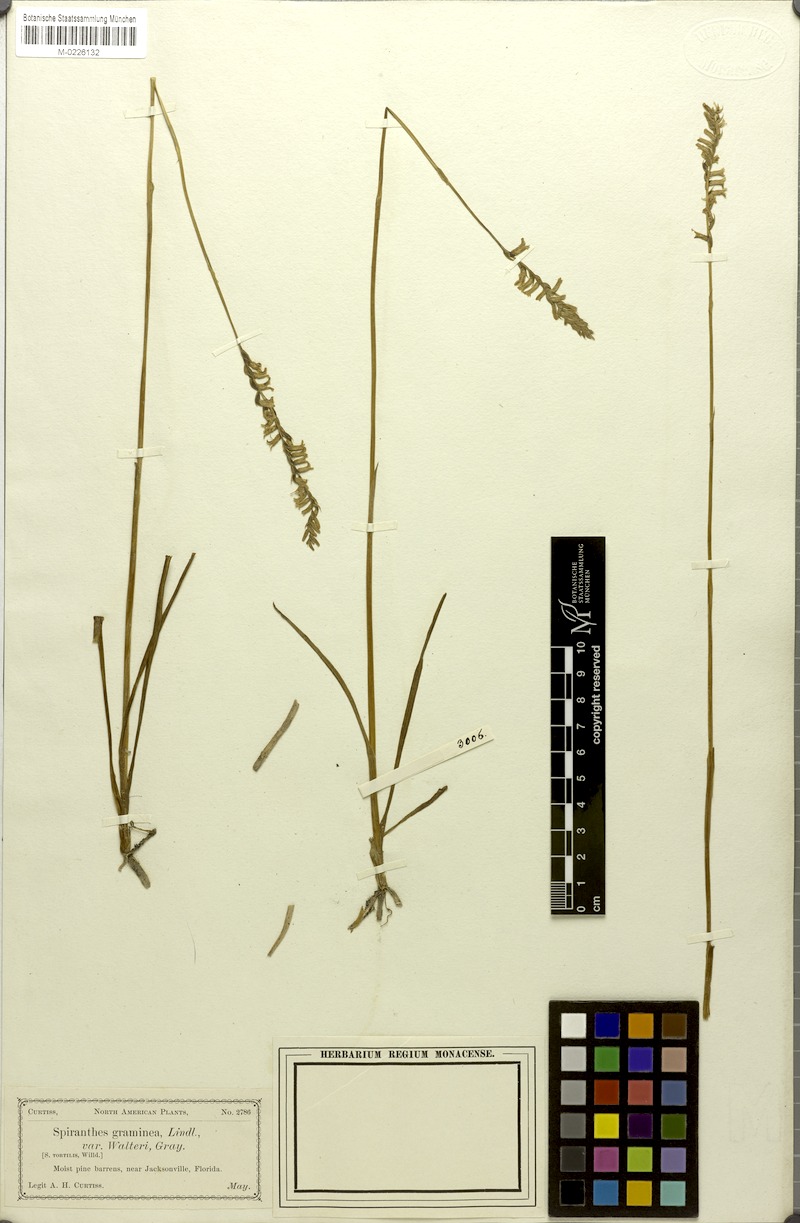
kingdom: Plantae
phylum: Tracheophyta
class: Liliopsida
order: Asparagales
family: Orchidaceae
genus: Spiranthes
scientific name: Spiranthes graminea
